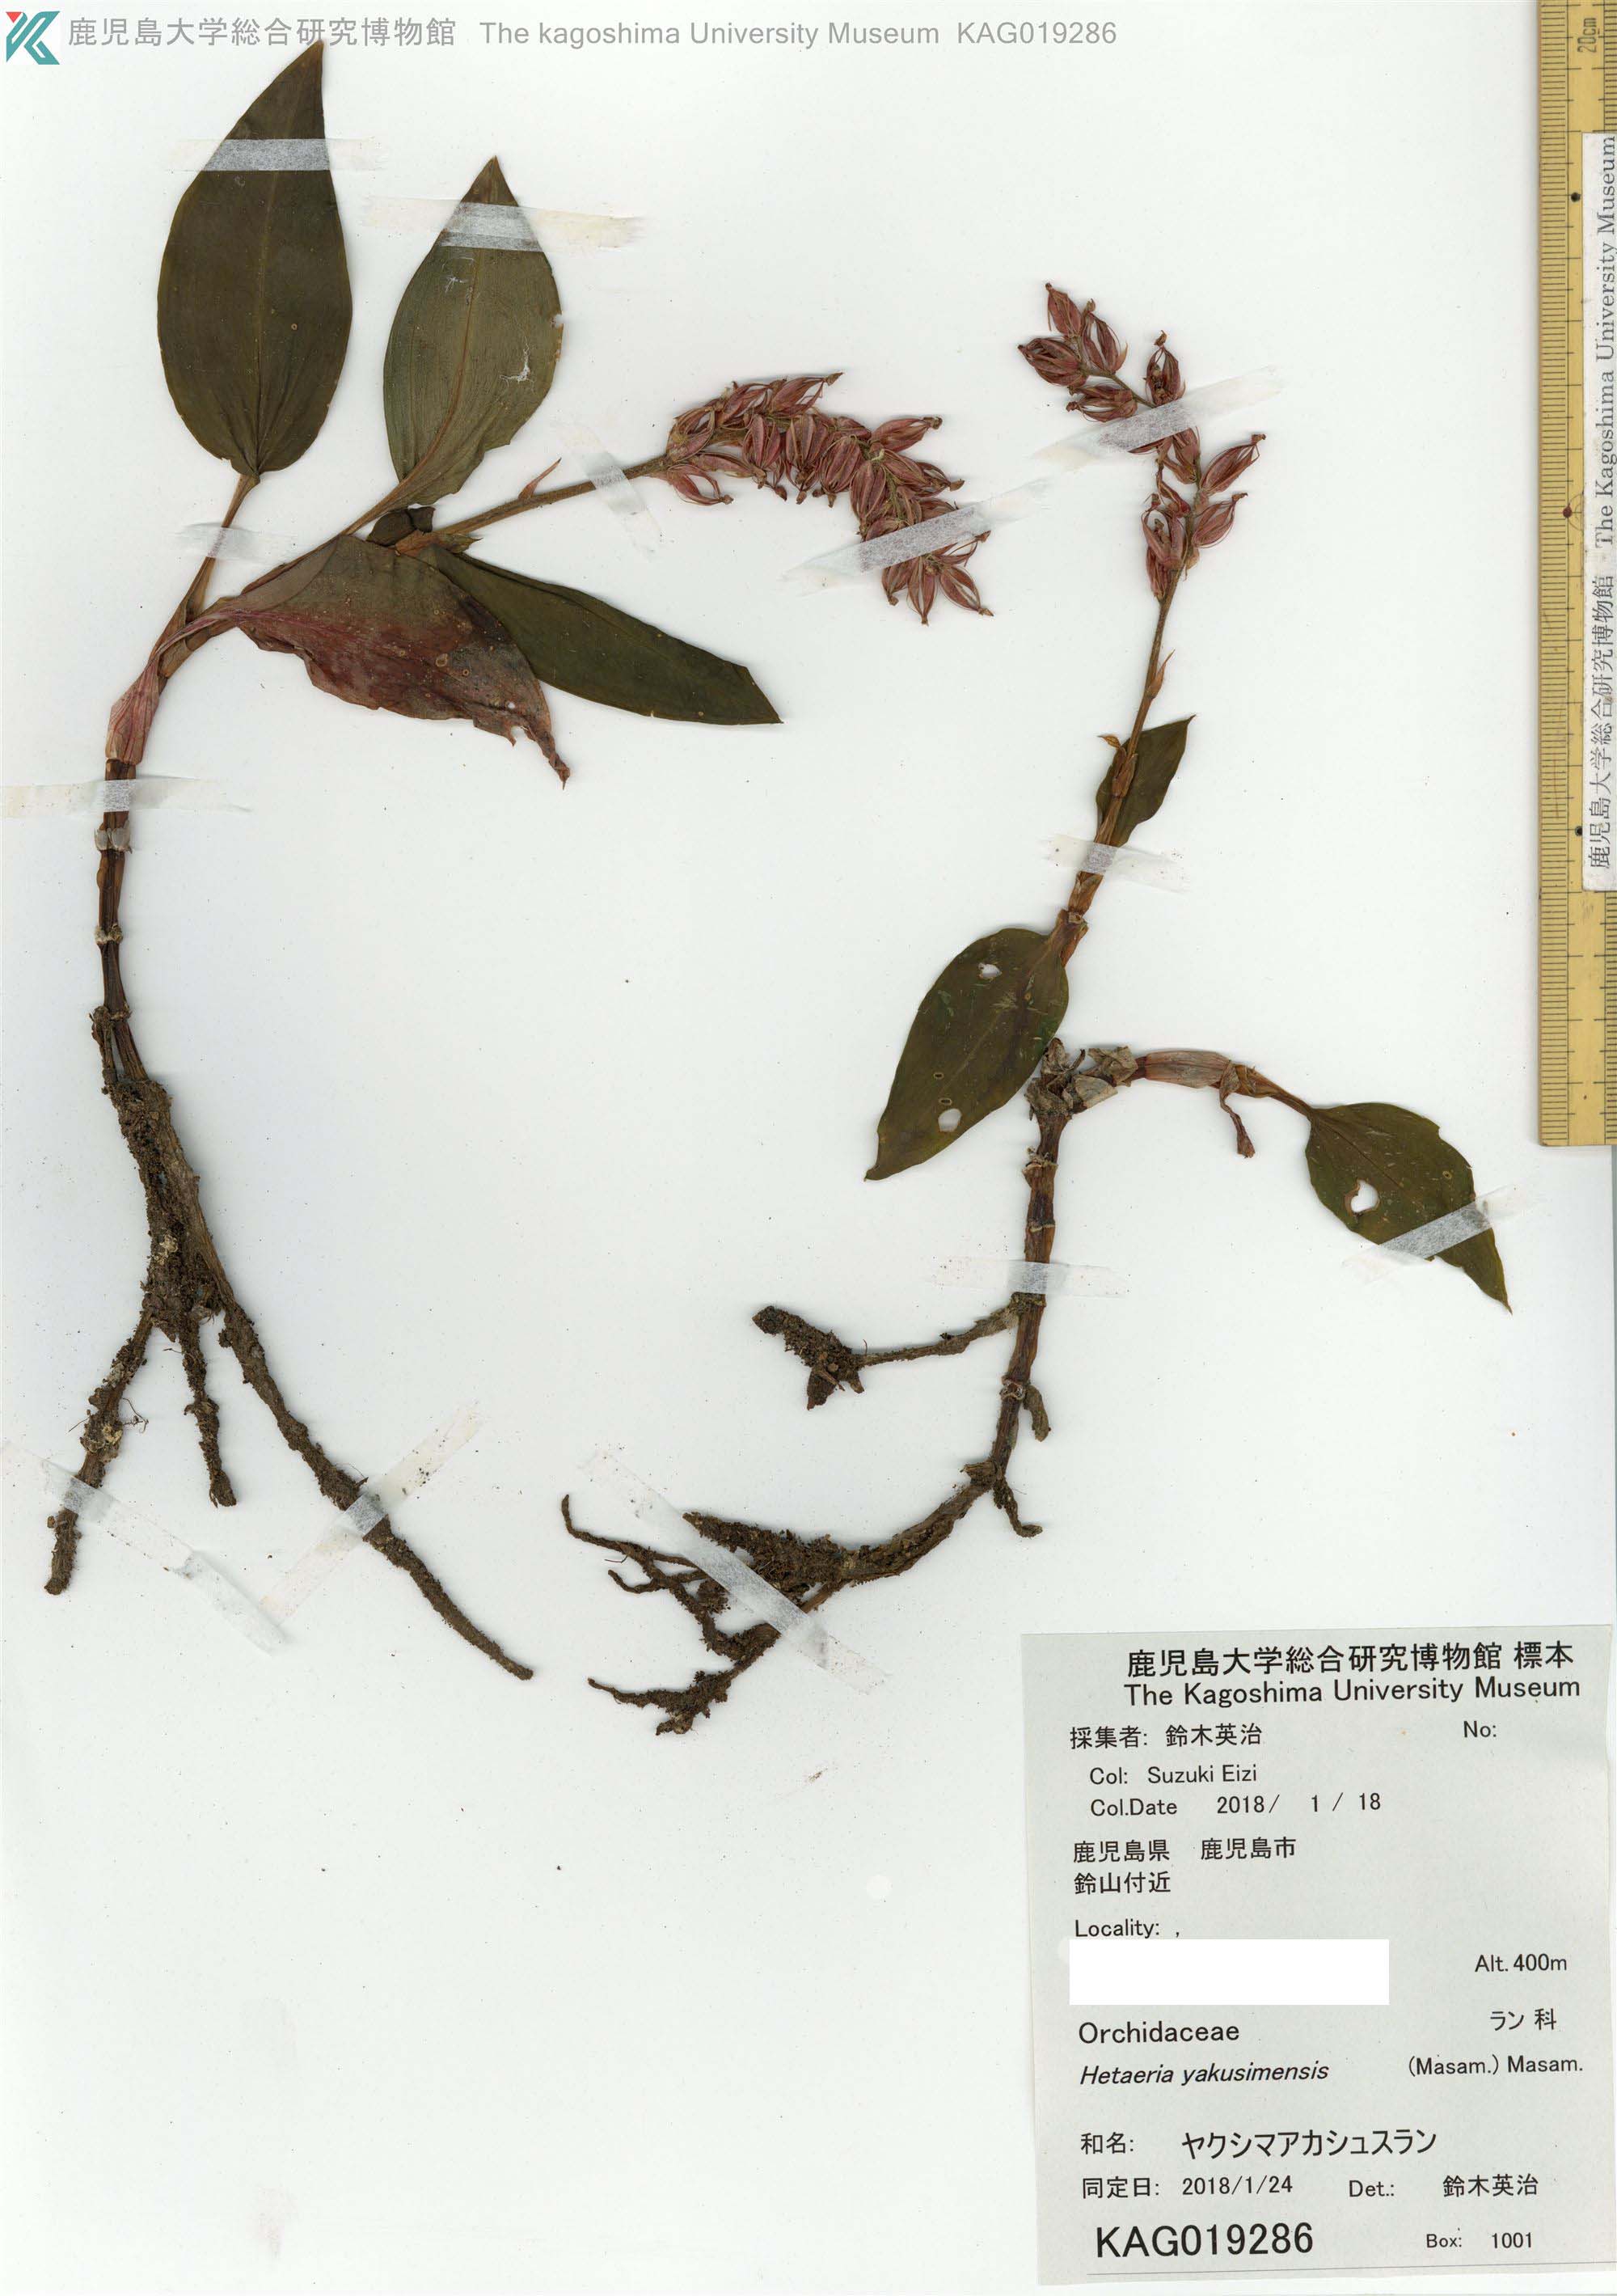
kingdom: Plantae
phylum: Tracheophyta
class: Liliopsida
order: Asparagales
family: Orchidaceae
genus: Rhomboda
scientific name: Rhomboda yakusimensis
